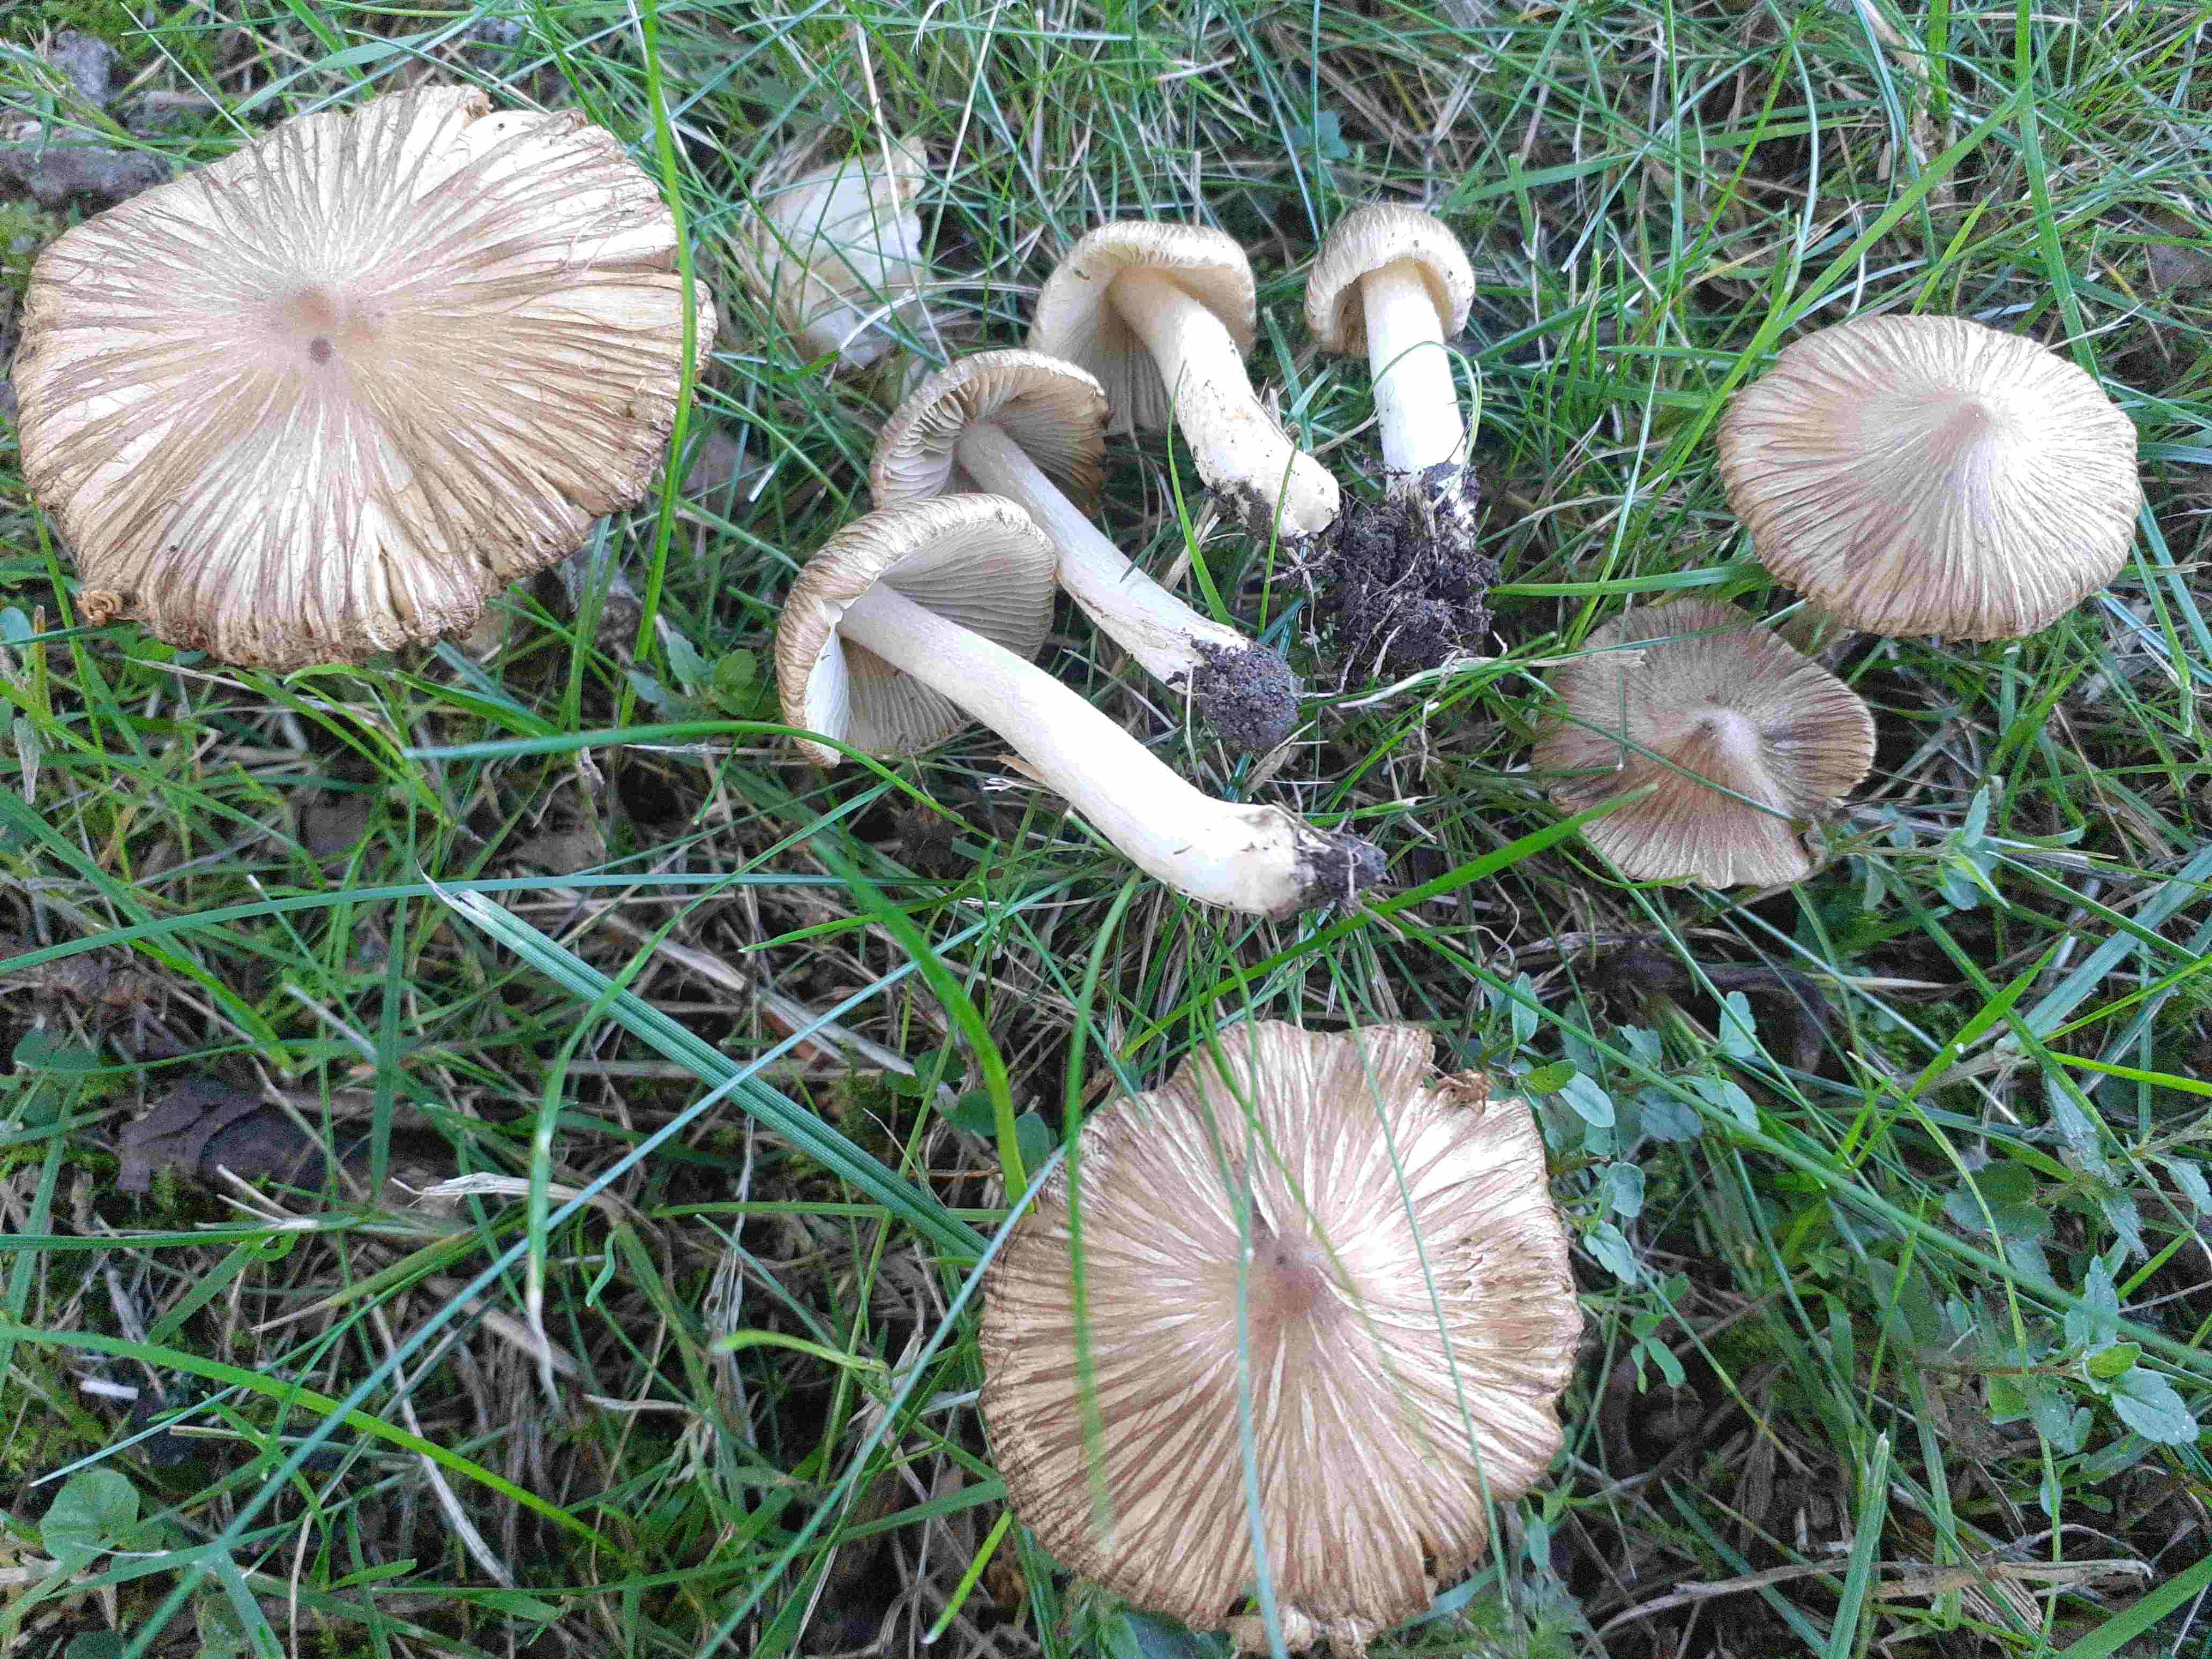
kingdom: Fungi
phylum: Basidiomycota
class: Agaricomycetes
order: Agaricales
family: Inocybaceae
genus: Pseudosperma
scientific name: Pseudosperma perlatum
